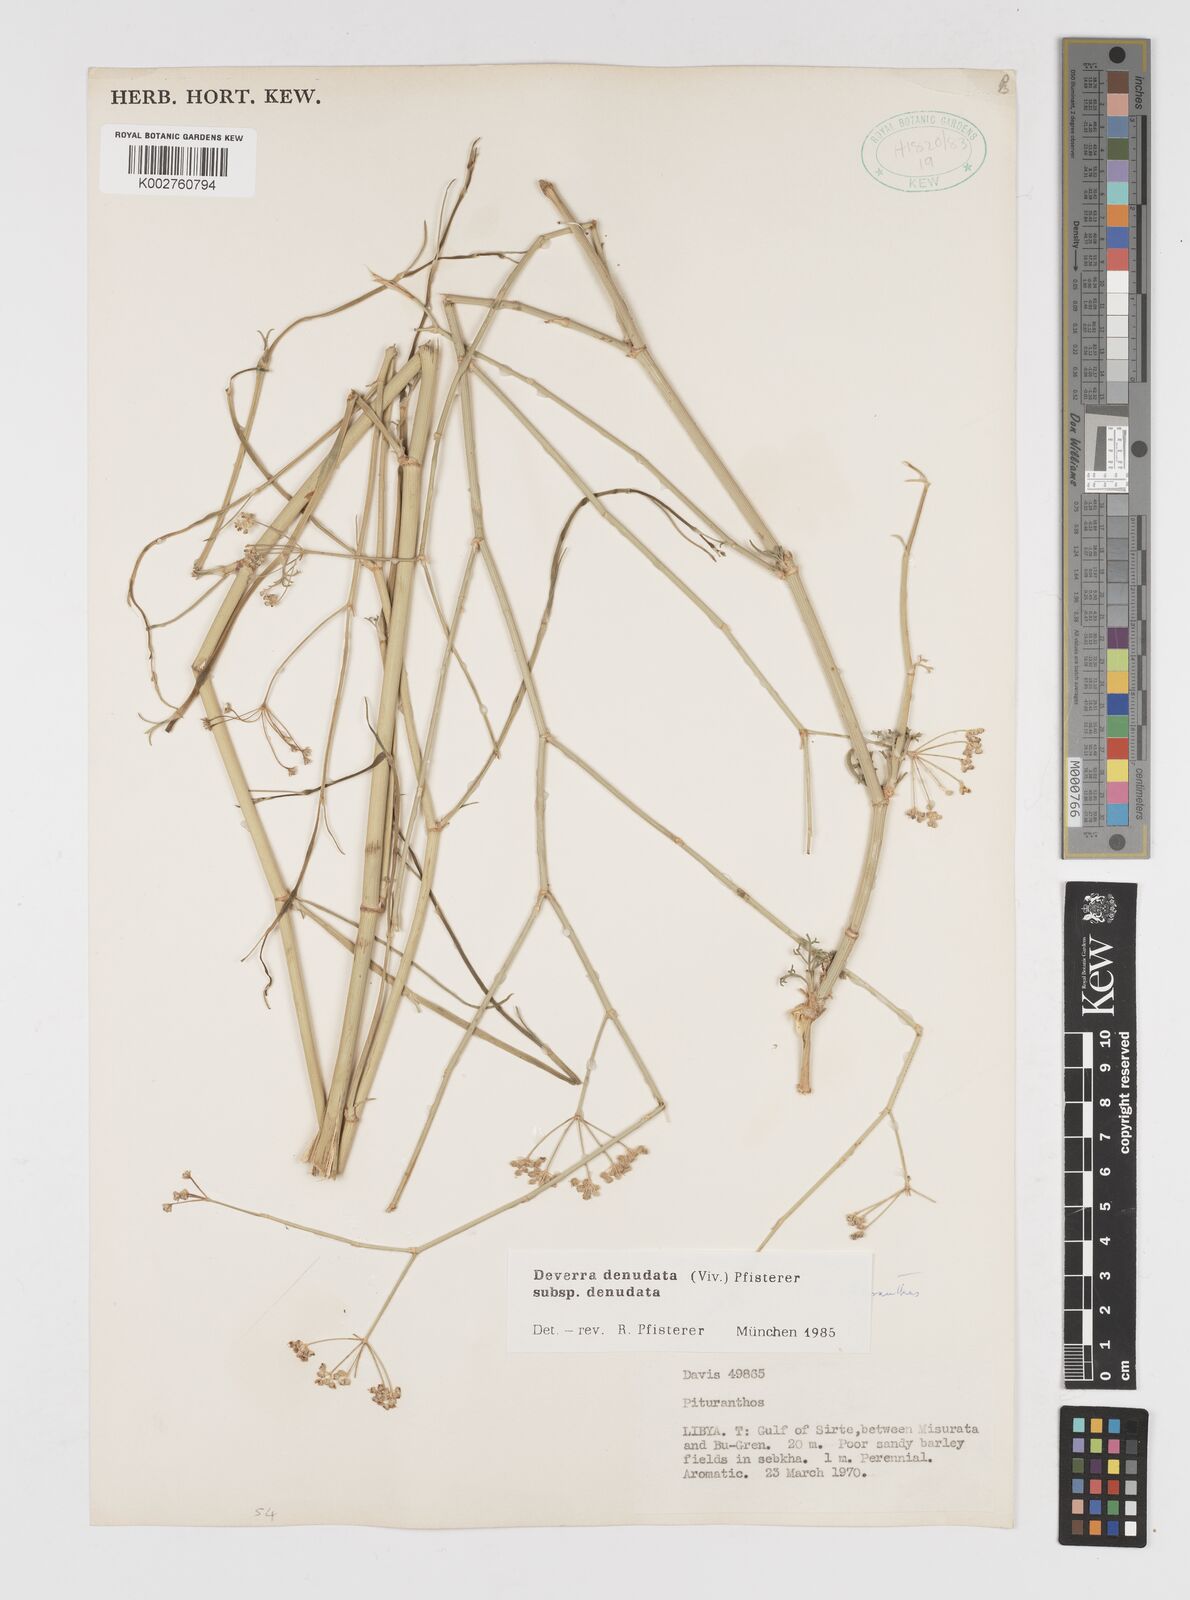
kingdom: Plantae
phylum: Tracheophyta
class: Magnoliopsida
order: Apiales
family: Apiaceae
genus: Deverra
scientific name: Deverra denudata
